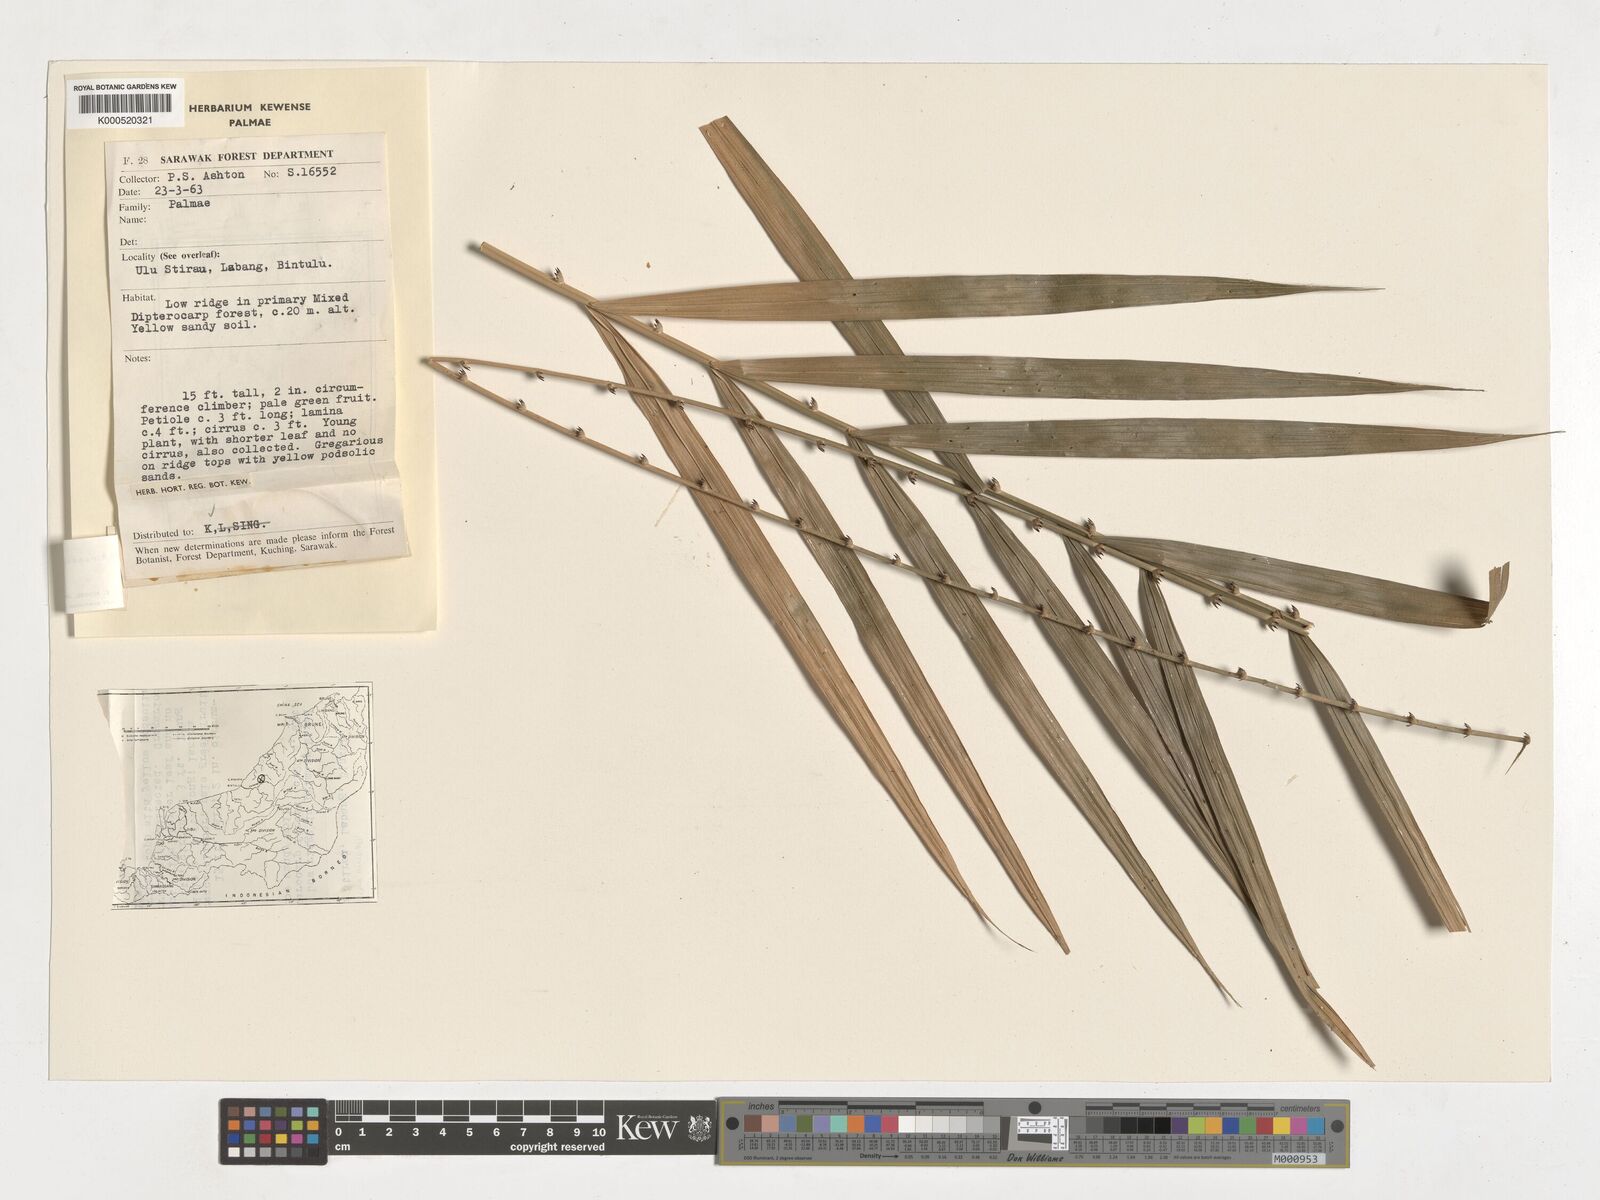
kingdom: Plantae
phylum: Tracheophyta
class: Liliopsida
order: Arecales
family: Arecaceae
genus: Calamus
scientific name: Calamus geniculatus
